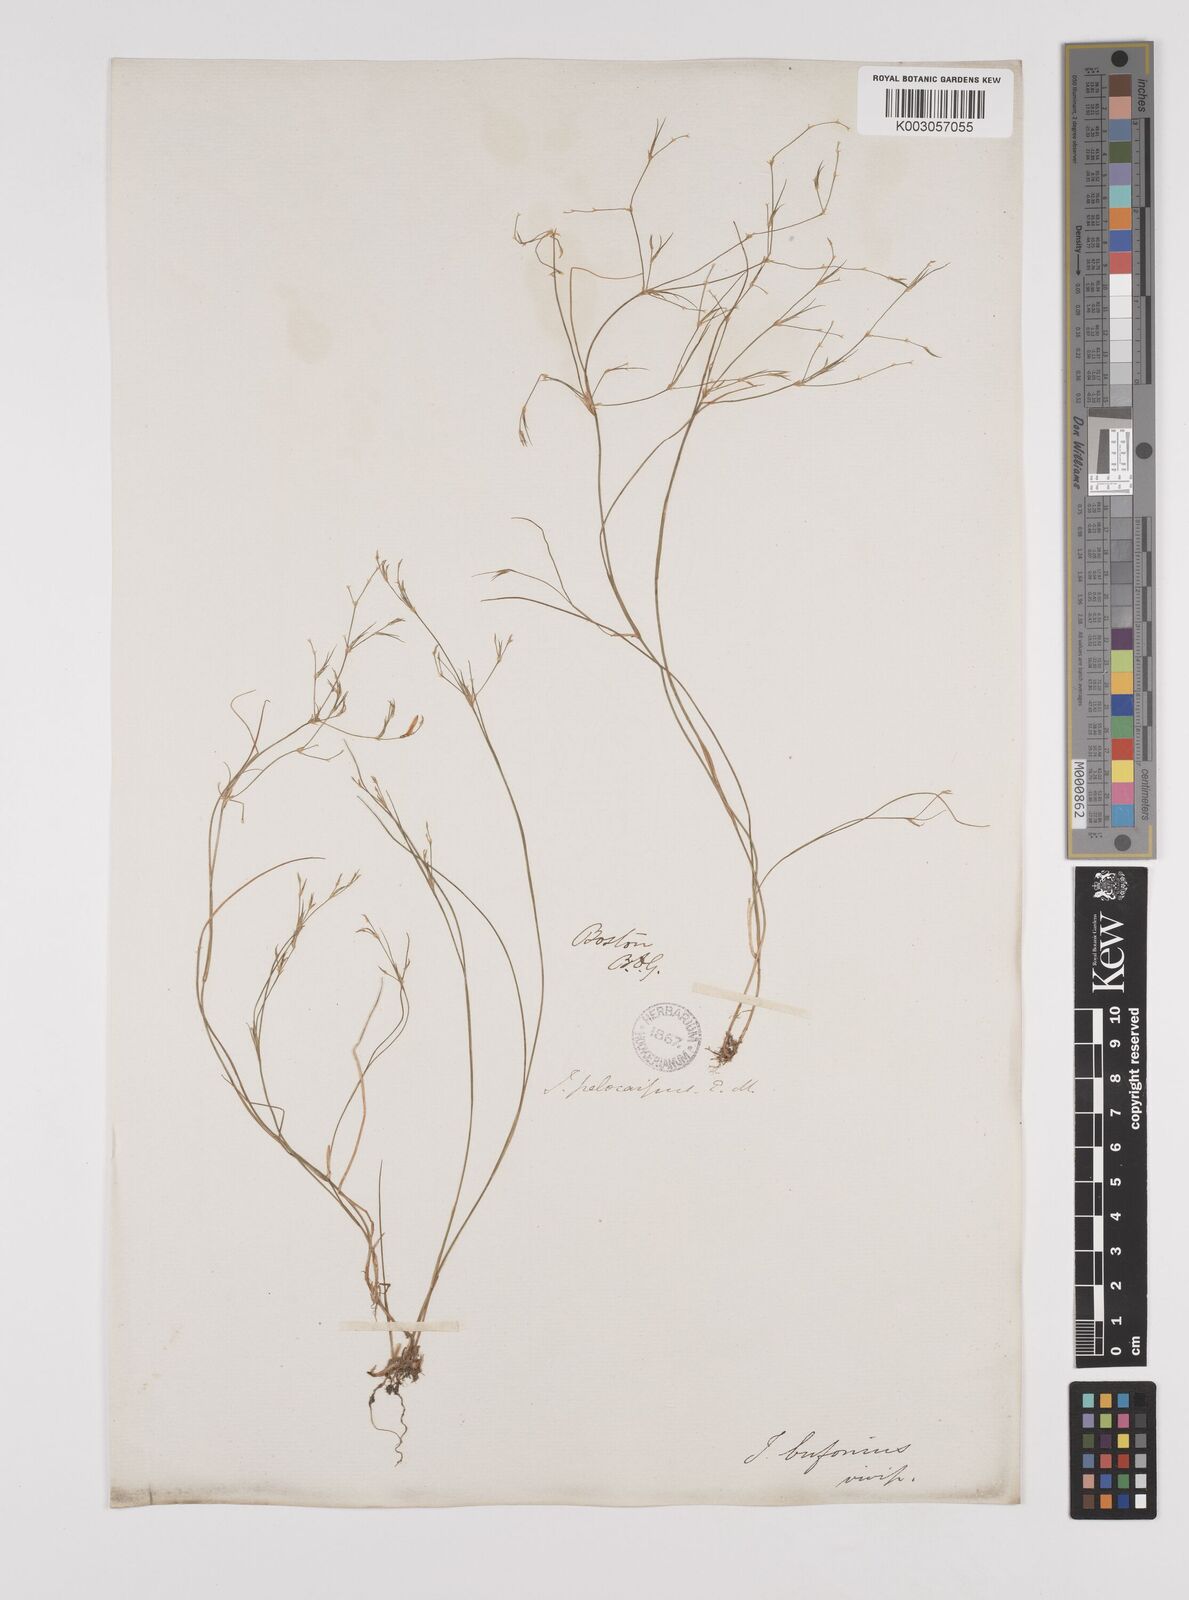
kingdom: Plantae
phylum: Tracheophyta
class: Liliopsida
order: Poales
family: Juncaceae
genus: Juncus
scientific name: Juncus pelocarpus
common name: Brown-fruited rush
